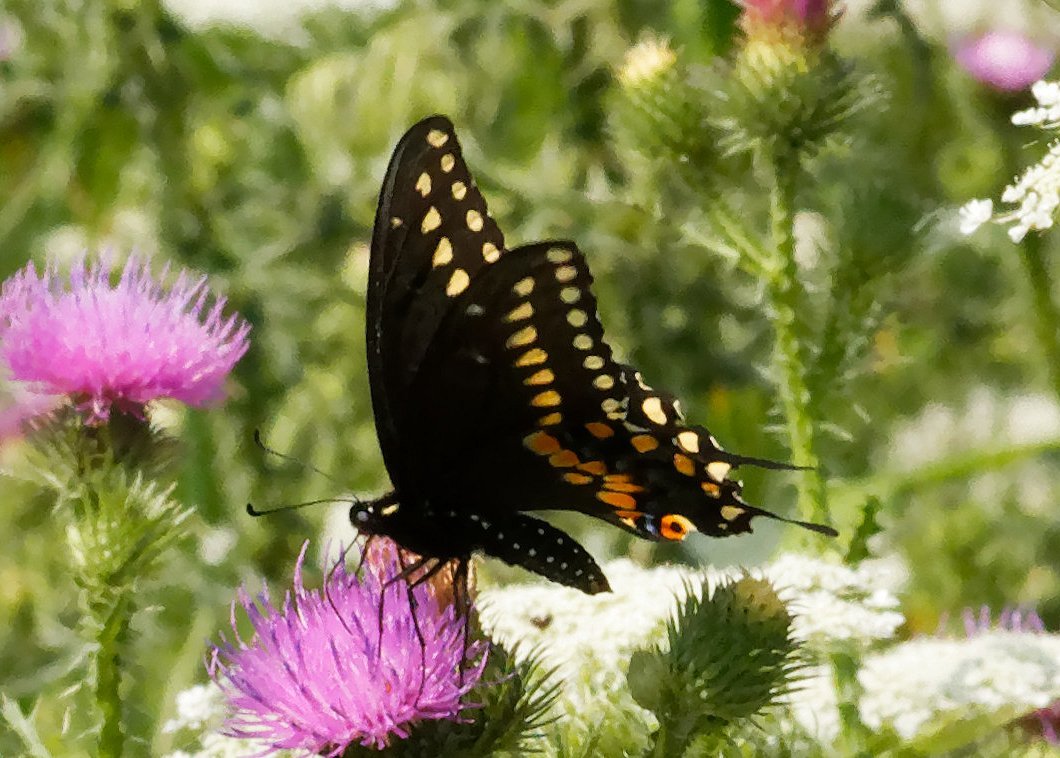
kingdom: Animalia
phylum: Arthropoda
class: Insecta
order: Lepidoptera
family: Papilionidae
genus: Papilio
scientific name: Papilio polyxenes
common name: Black Swallowtail
